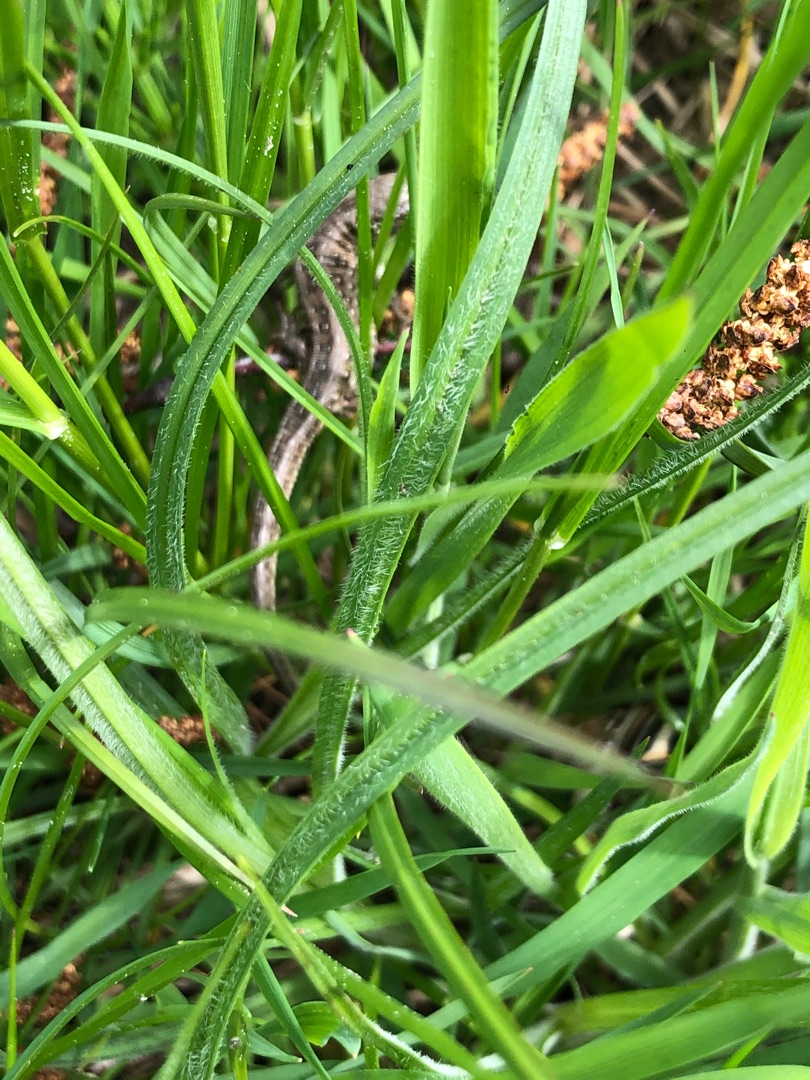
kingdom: Animalia
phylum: Chordata
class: Squamata
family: Lacertidae
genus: Lacerta
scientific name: Lacerta agilis
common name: Markfirben
